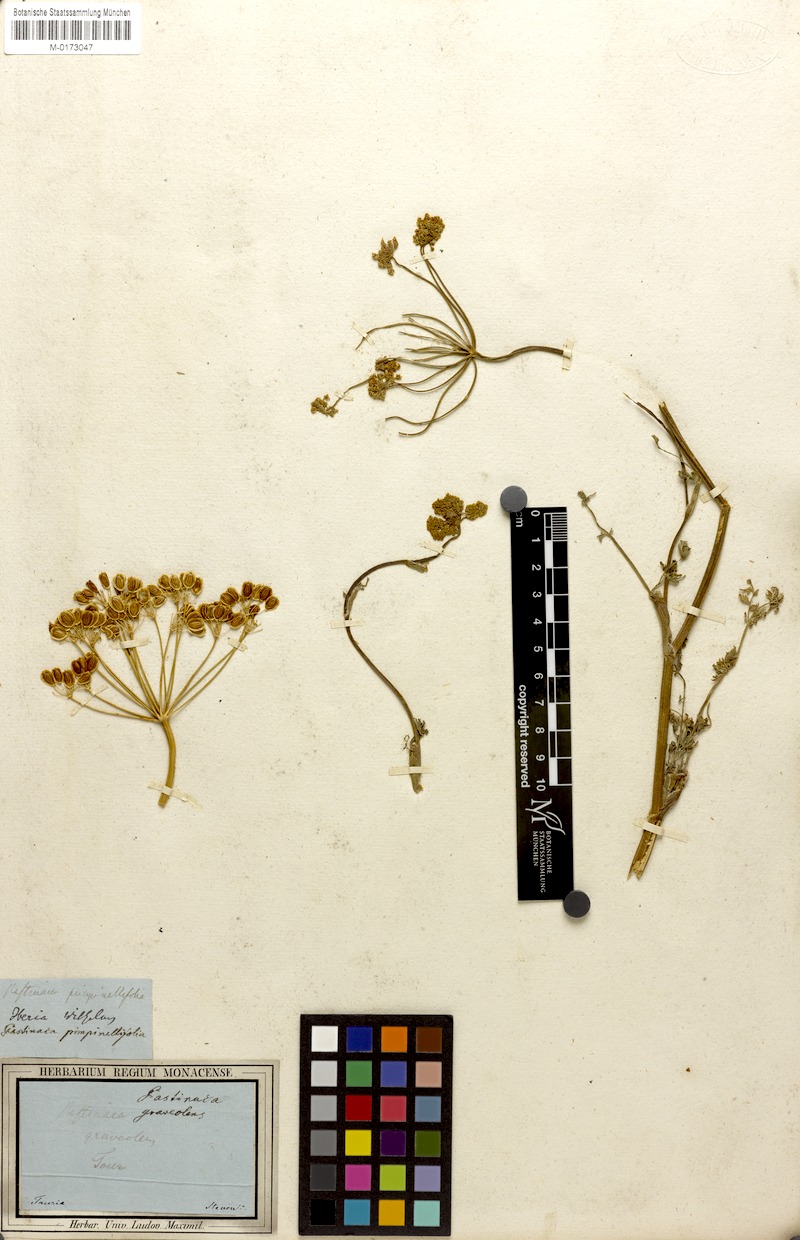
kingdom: Plantae
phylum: Tracheophyta
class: Magnoliopsida
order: Apiales
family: Apiaceae
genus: Pastinaca
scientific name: Pastinaca pimpinellifolia
